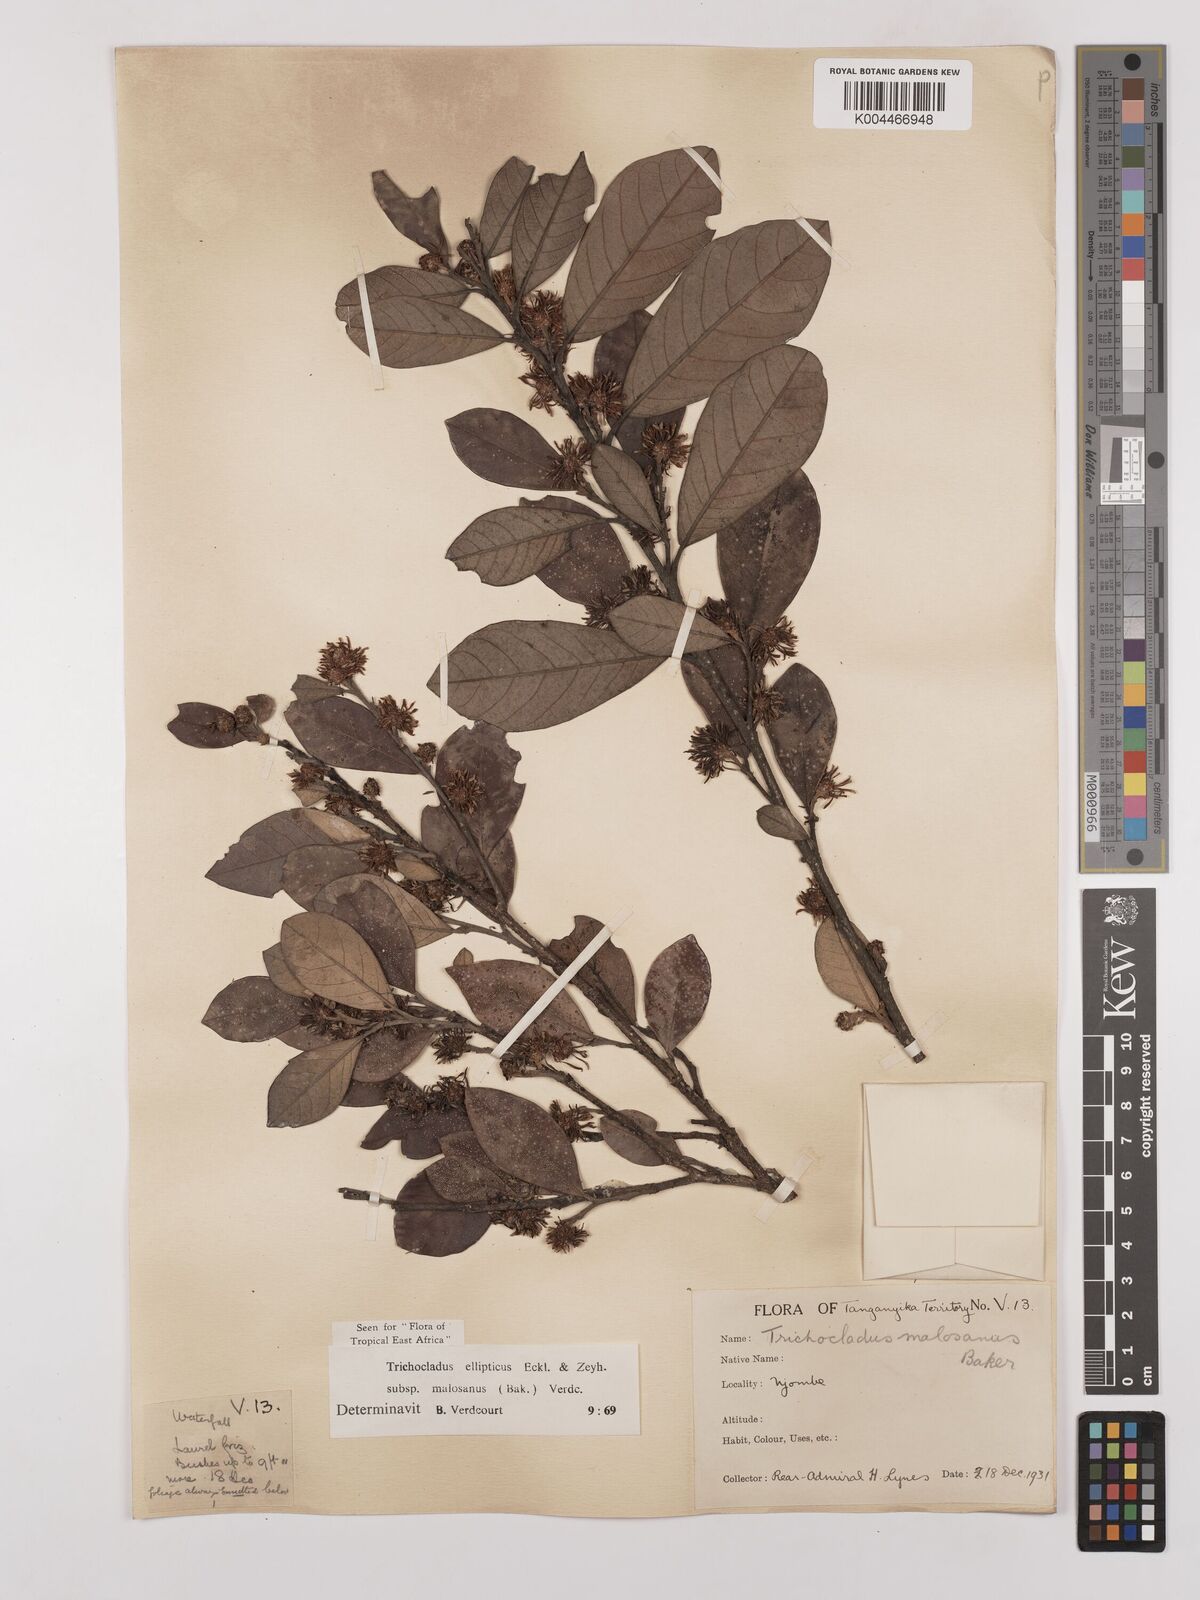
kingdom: Plantae
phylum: Tracheophyta
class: Magnoliopsida
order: Saxifragales
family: Hamamelidaceae
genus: Trichocladus
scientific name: Trichocladus ellipticus
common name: White witch-hazel
